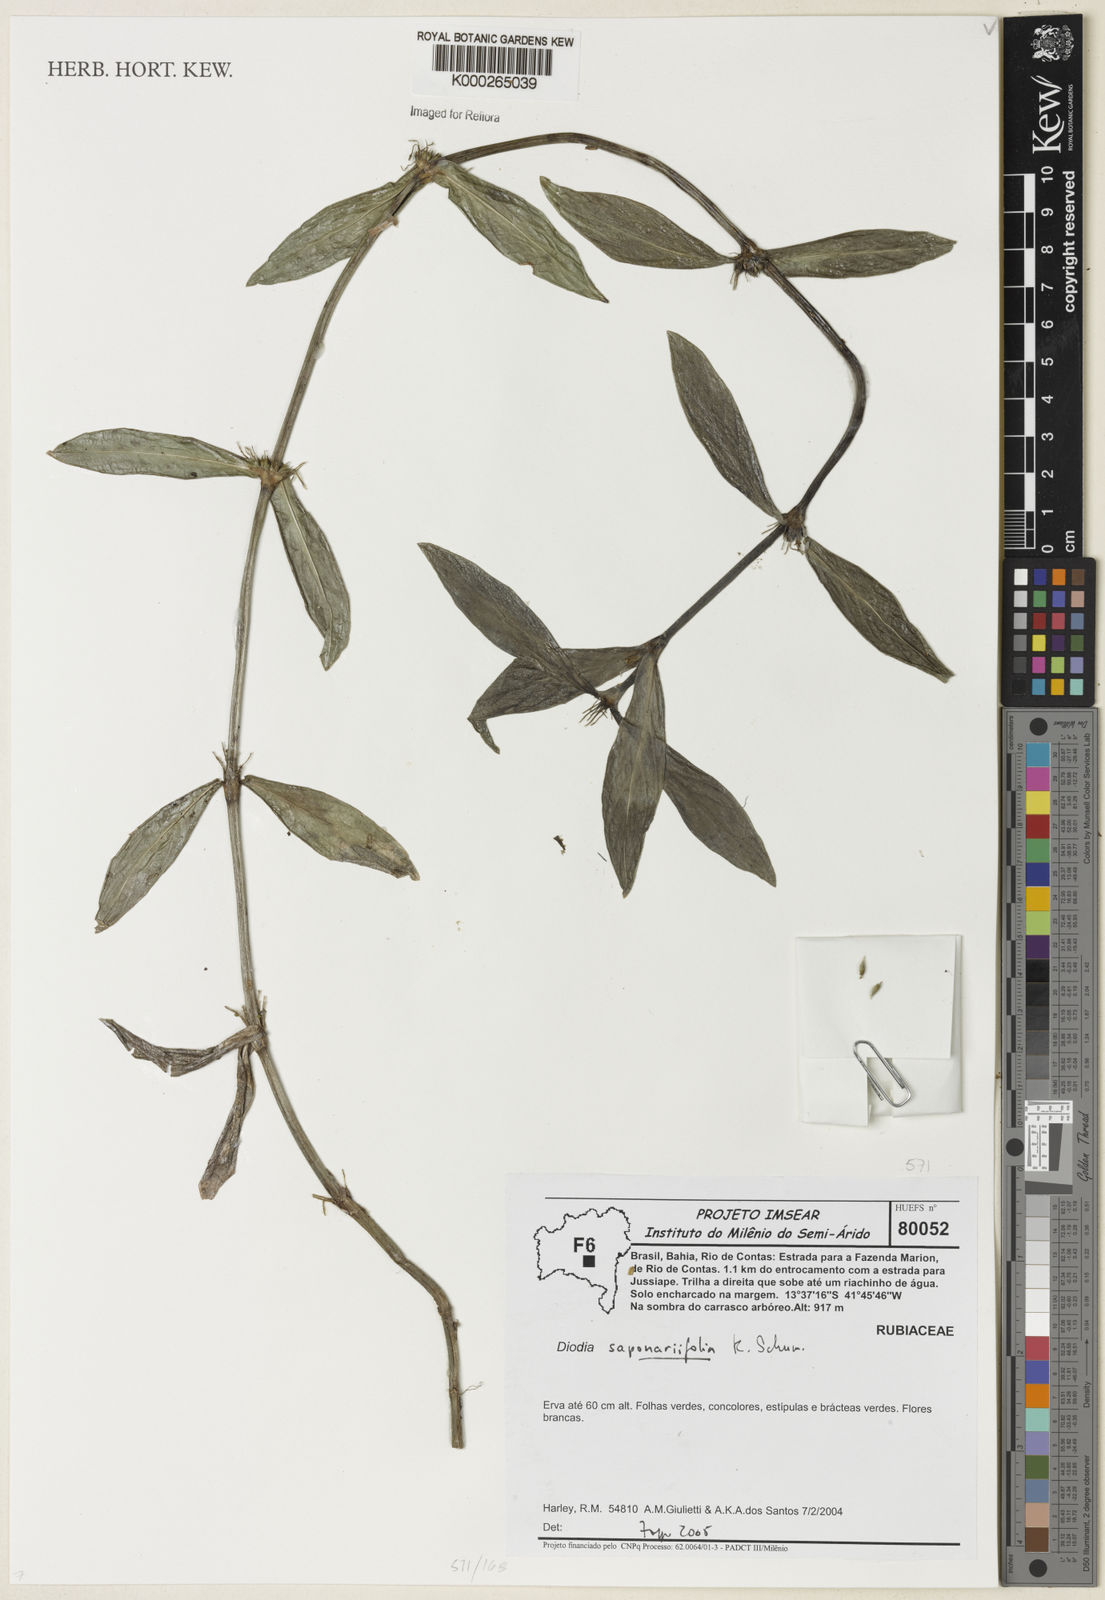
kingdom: Plantae
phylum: Tracheophyta
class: Magnoliopsida
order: Gentianales
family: Rubiaceae
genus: Diodia
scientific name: Diodia saponariifolia
